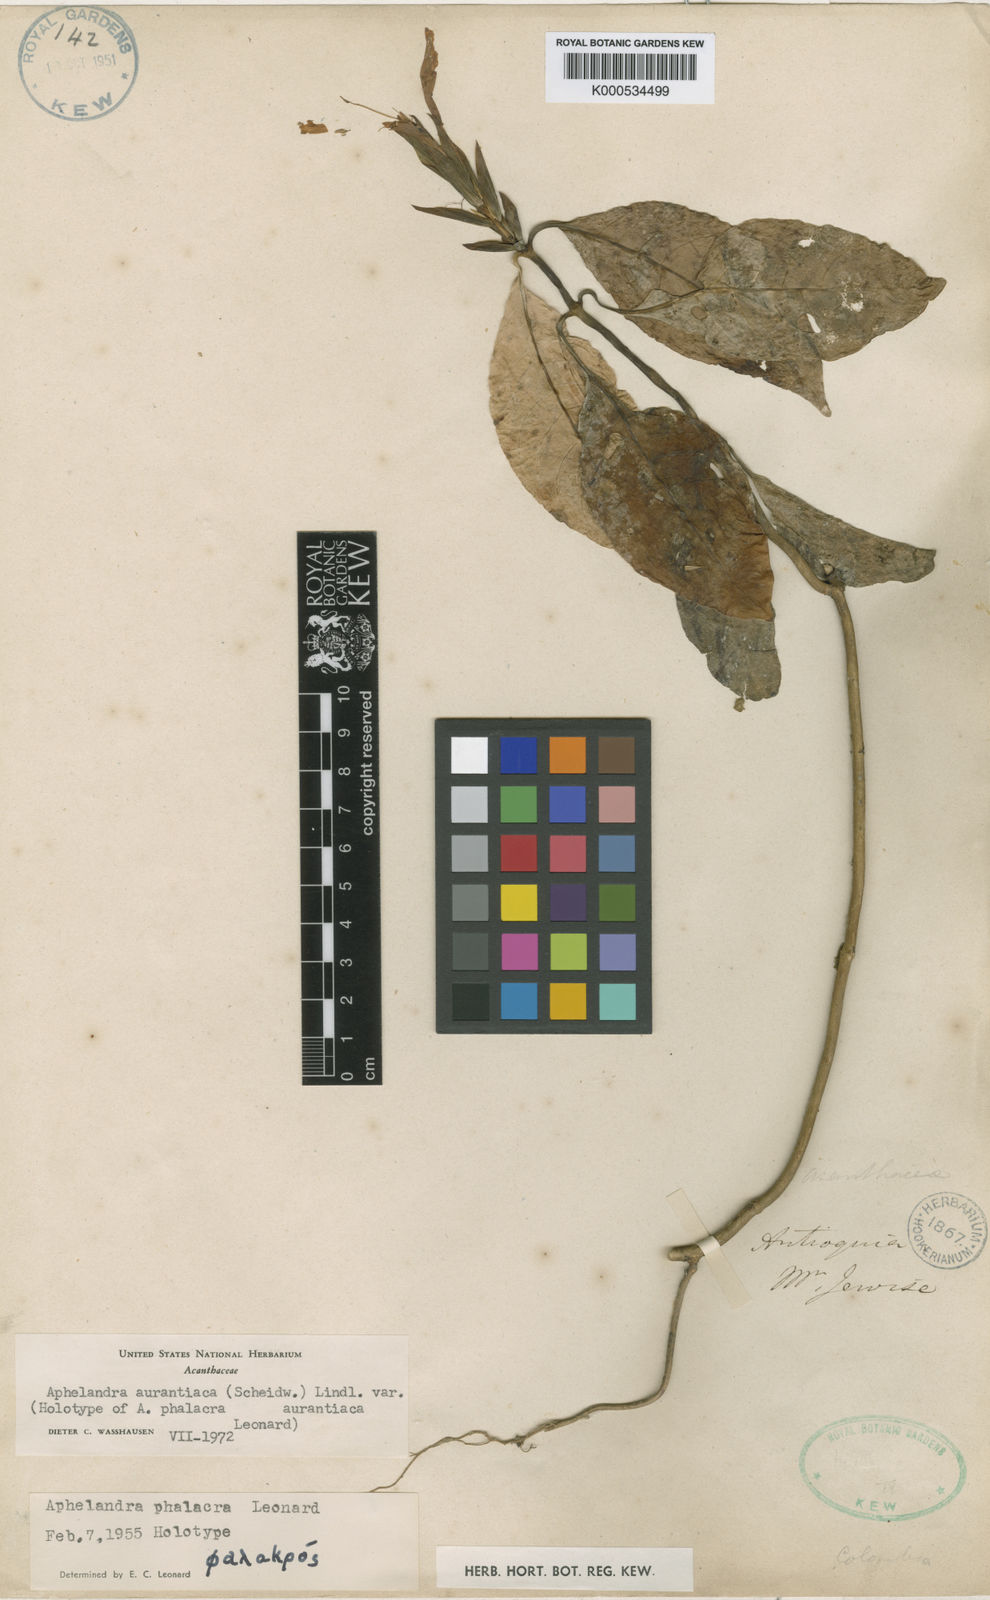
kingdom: Plantae
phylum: Tracheophyta
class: Magnoliopsida
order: Lamiales
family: Acanthaceae
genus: Aphelandra
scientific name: Aphelandra aurantiaca
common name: Fiery spike
